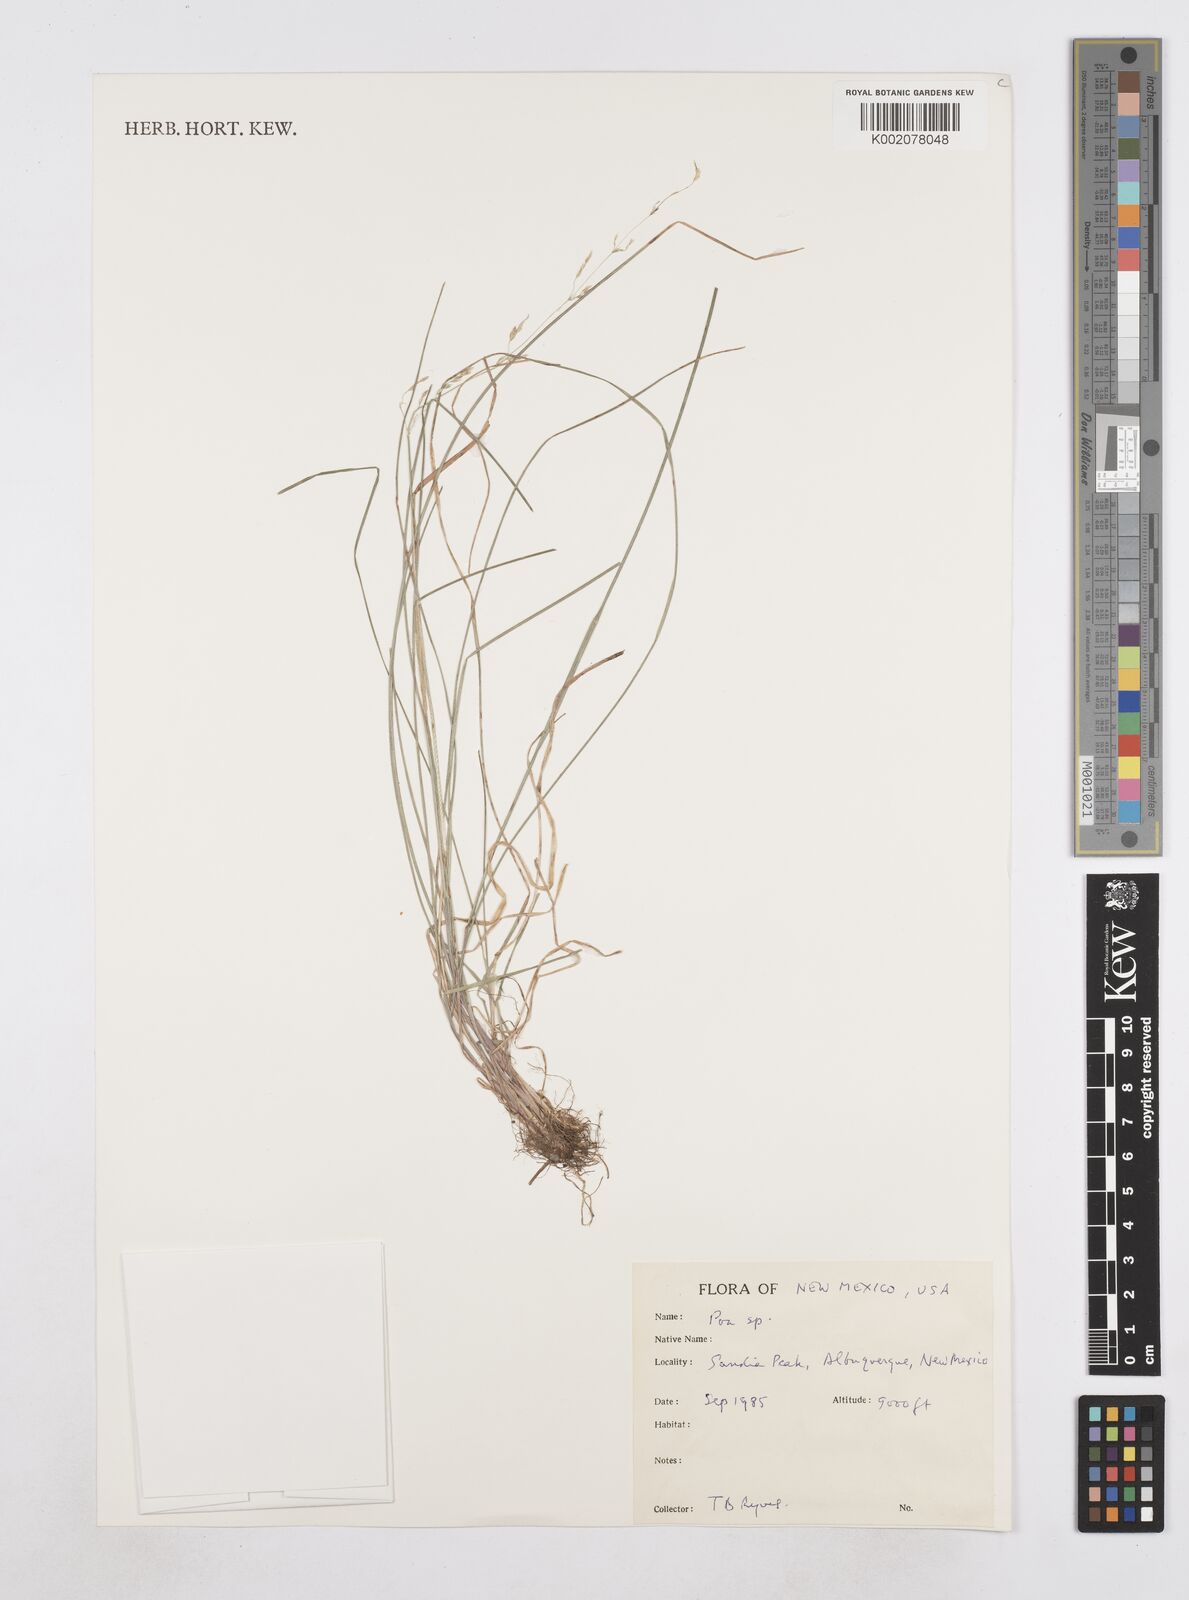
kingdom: Plantae
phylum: Tracheophyta
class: Liliopsida
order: Poales
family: Poaceae
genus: Poa
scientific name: Poa
